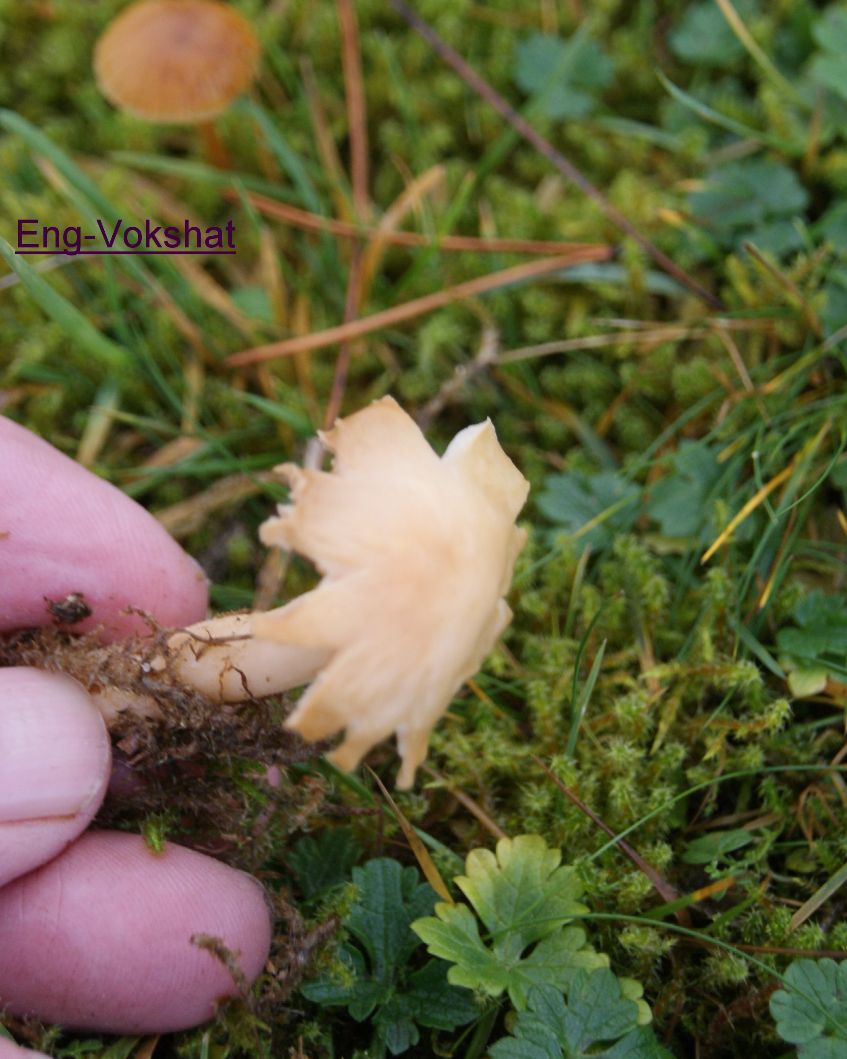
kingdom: Fungi
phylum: Basidiomycota
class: Agaricomycetes
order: Agaricales
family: Hygrophoraceae
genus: Cuphophyllus
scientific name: Cuphophyllus pratensis
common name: eng-vokshat
